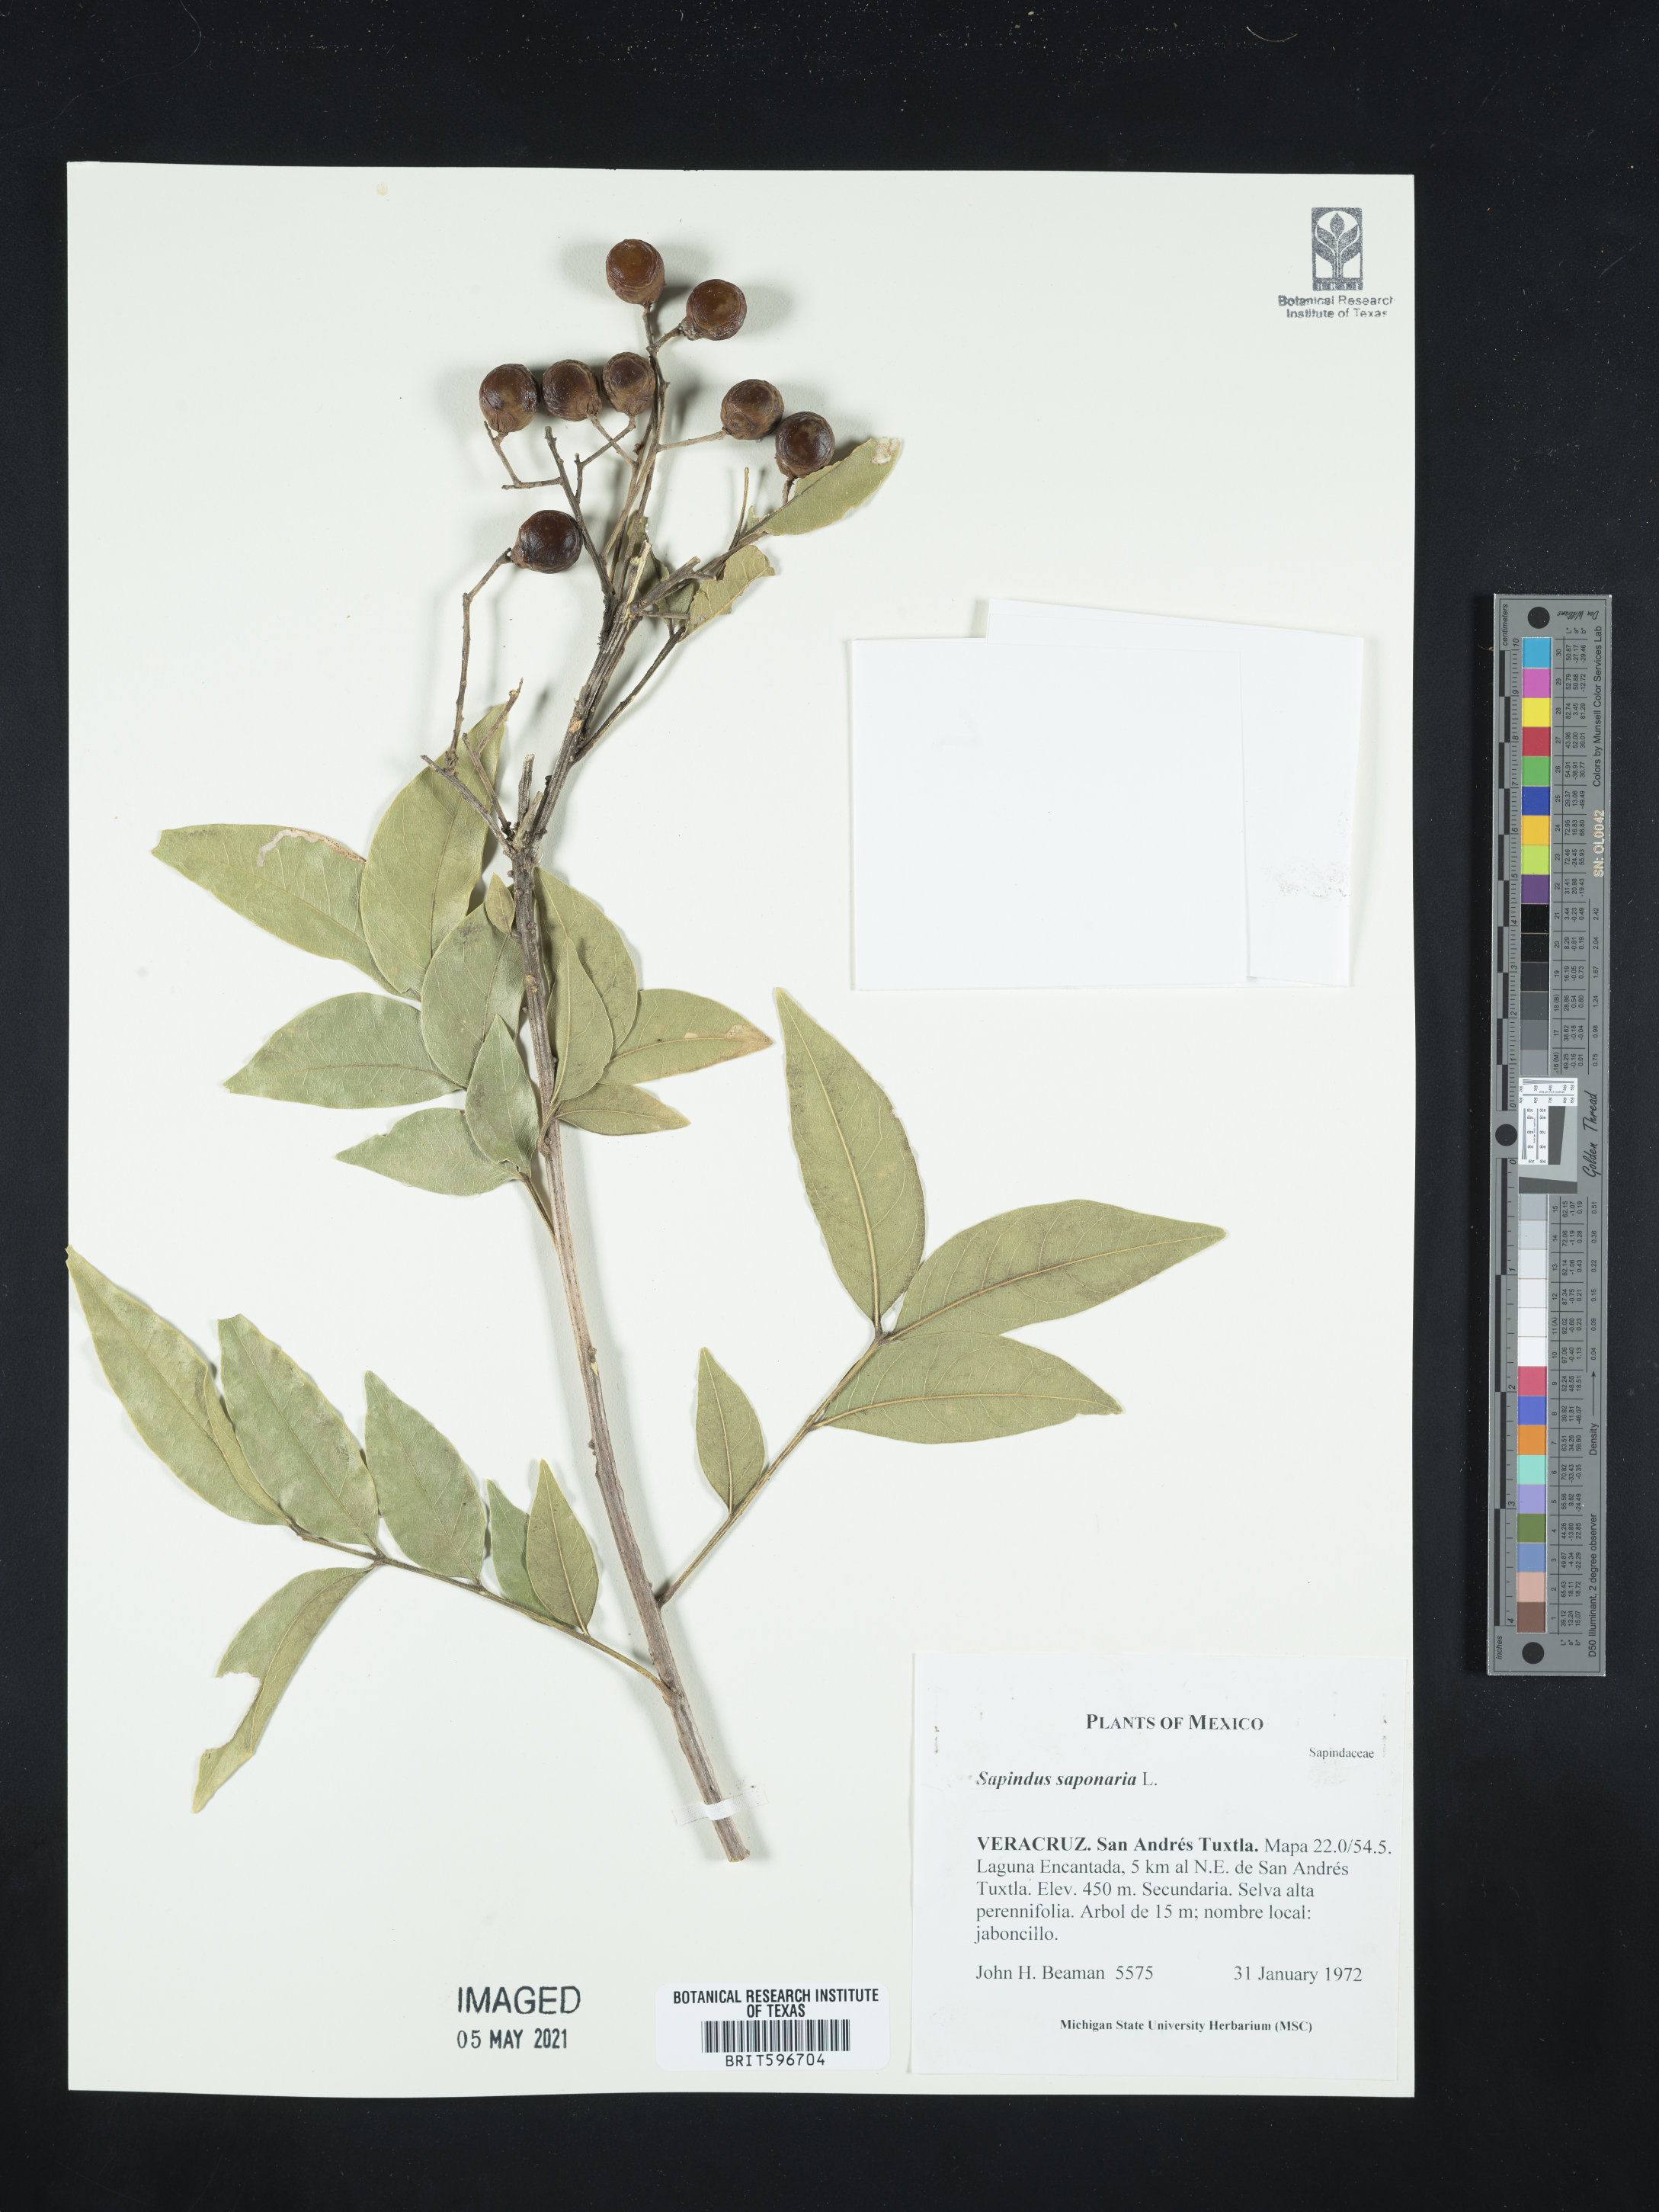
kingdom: Plantae
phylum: Tracheophyta
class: Magnoliopsida
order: Sapindales
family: Sapindaceae
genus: Sapindus
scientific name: Sapindus saponaria
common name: Wingleaf soapberry
